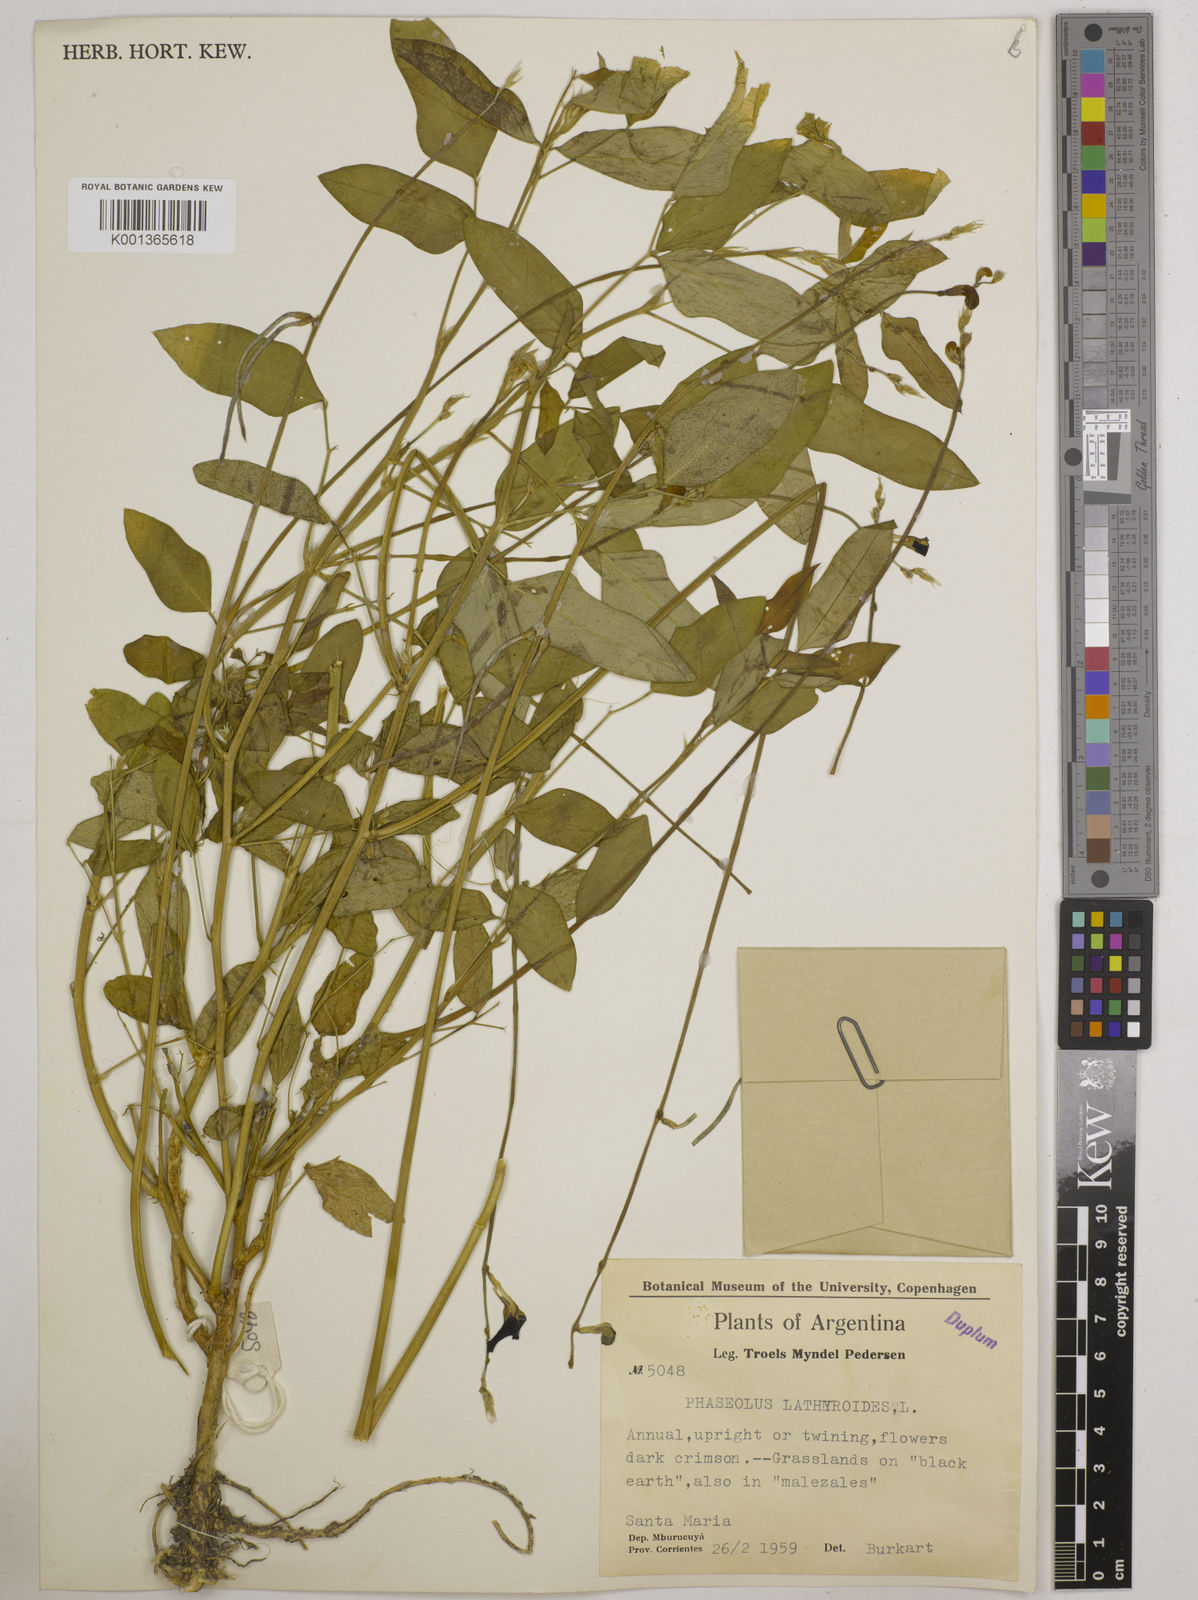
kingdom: Plantae
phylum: Tracheophyta
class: Magnoliopsida
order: Fabales
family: Fabaceae
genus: Macroptilium
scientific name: Macroptilium lathyroides
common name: Wild bushbean
